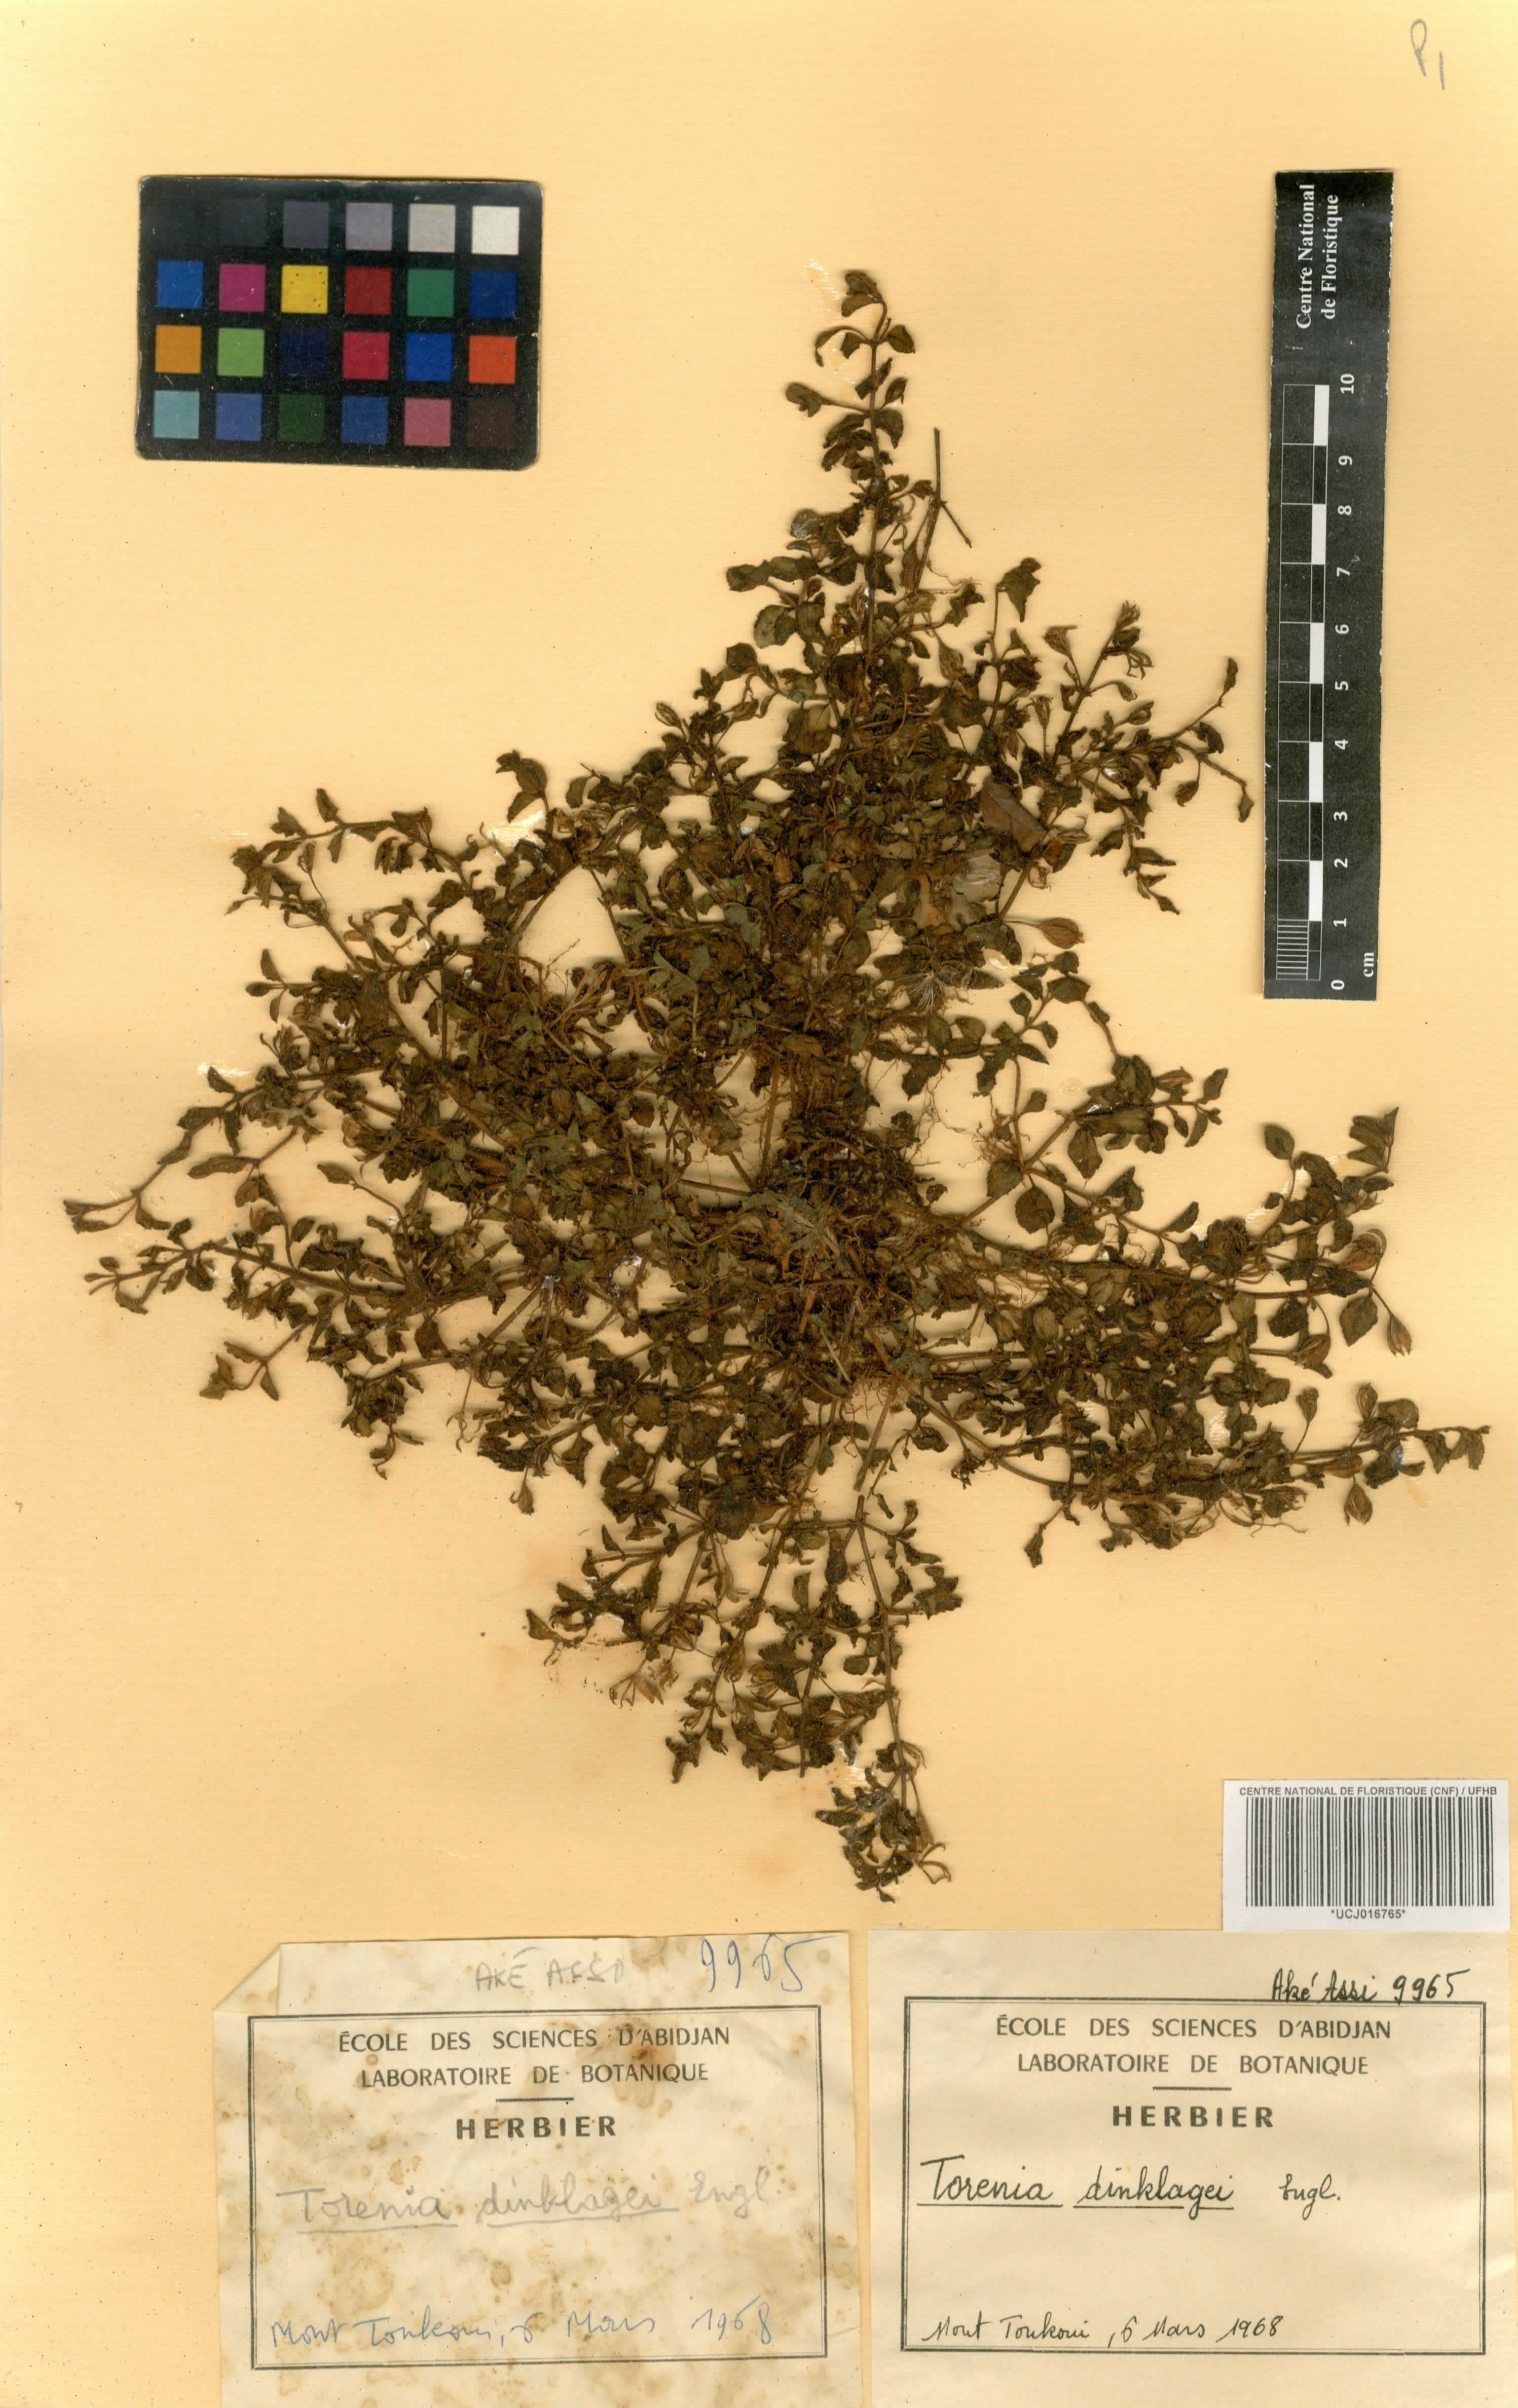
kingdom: Plantae
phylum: Tracheophyta
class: Magnoliopsida
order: Lamiales
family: Linderniaceae
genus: Torenia
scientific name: Torenia dinklagei
